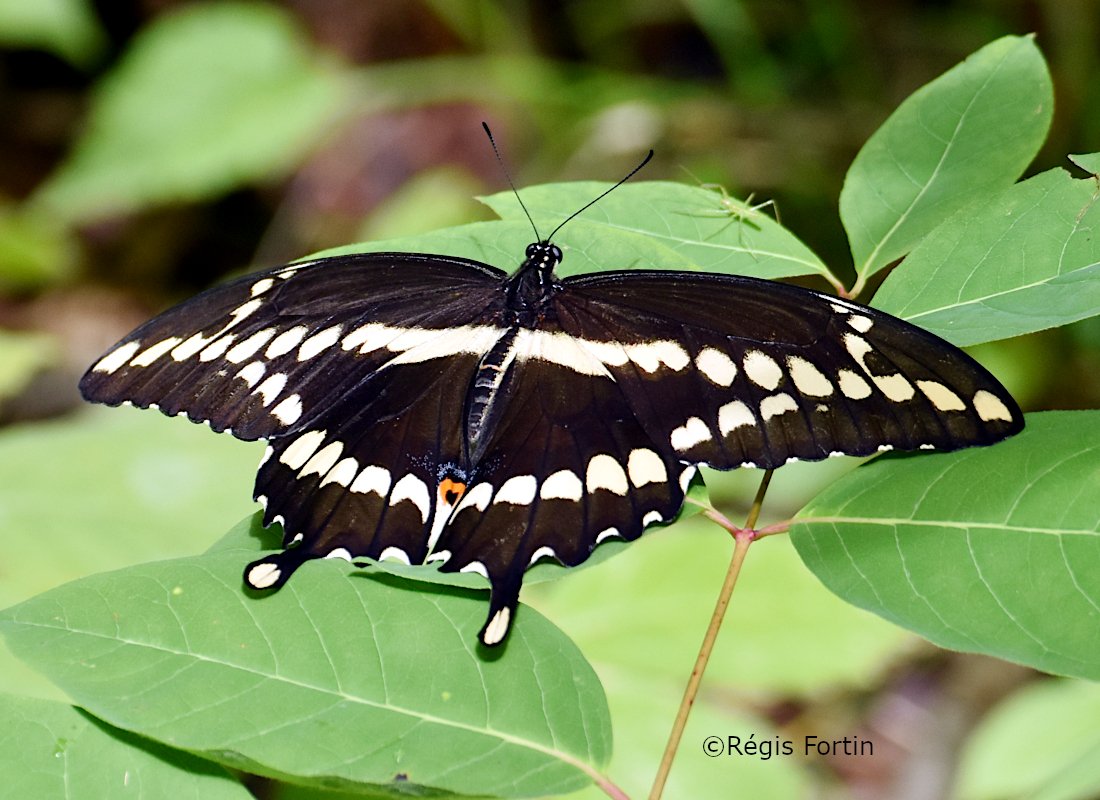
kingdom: Animalia
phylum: Arthropoda
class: Insecta
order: Lepidoptera
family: Papilionidae
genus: Papilio
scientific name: Papilio cresphontes
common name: Eastern Giant Swallowtail
